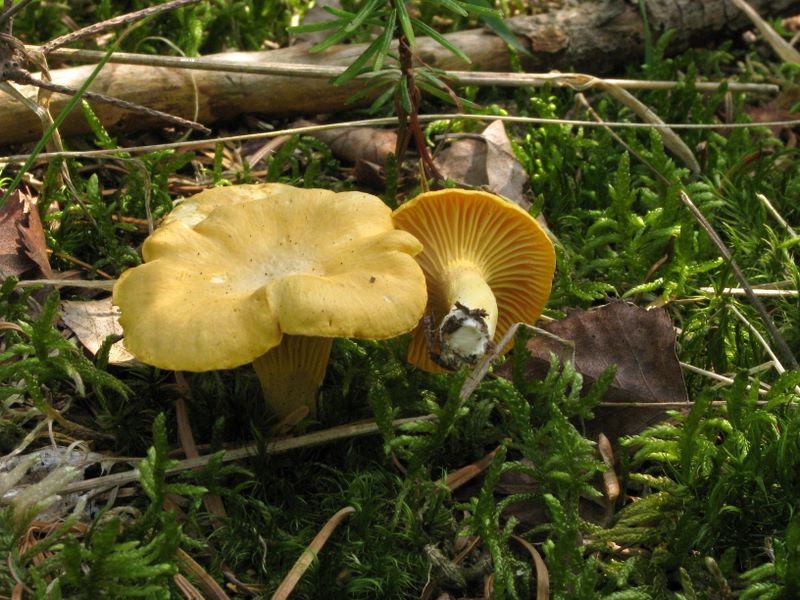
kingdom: Fungi
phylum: Basidiomycota
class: Agaricomycetes
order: Cantharellales
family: Hydnaceae
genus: Cantharellus
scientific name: Cantharellus cibarius
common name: almindelig kantarel
